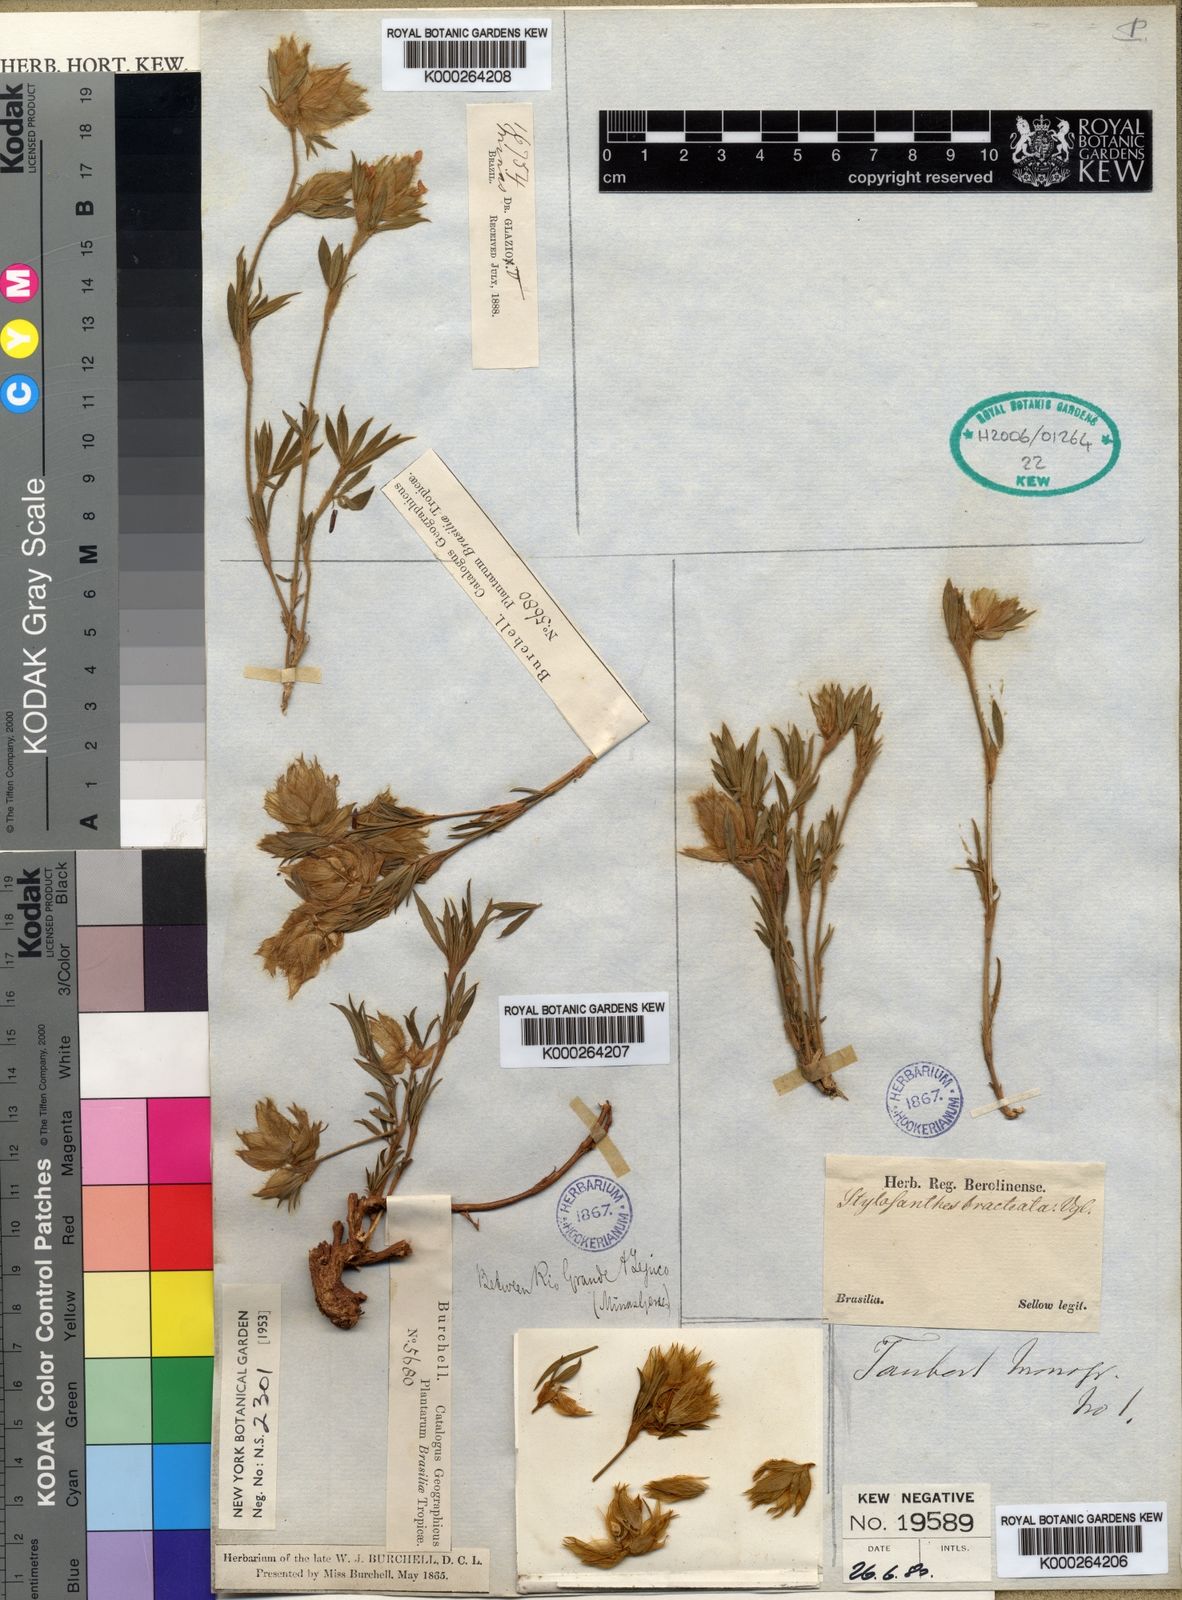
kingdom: Plantae
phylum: Tracheophyta
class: Magnoliopsida
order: Fabales
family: Fabaceae
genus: Stylosanthes
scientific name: Stylosanthes bracteata
